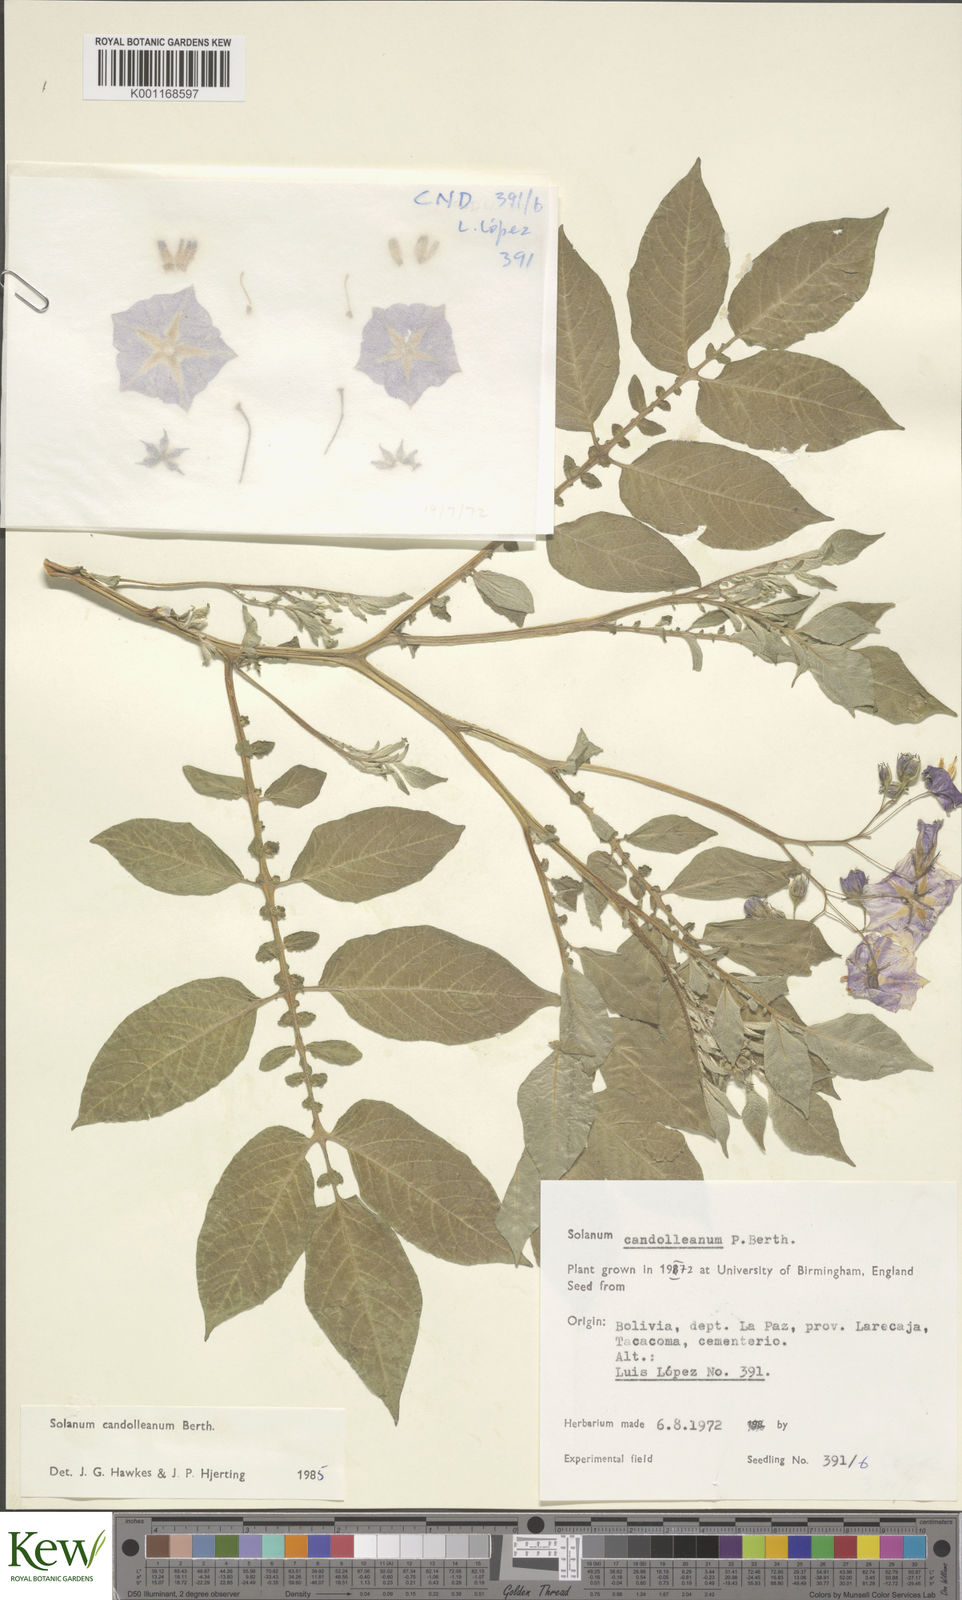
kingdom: Plantae
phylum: Tracheophyta
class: Magnoliopsida
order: Solanales
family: Solanaceae
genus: Solanum
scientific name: Solanum candolleanum
